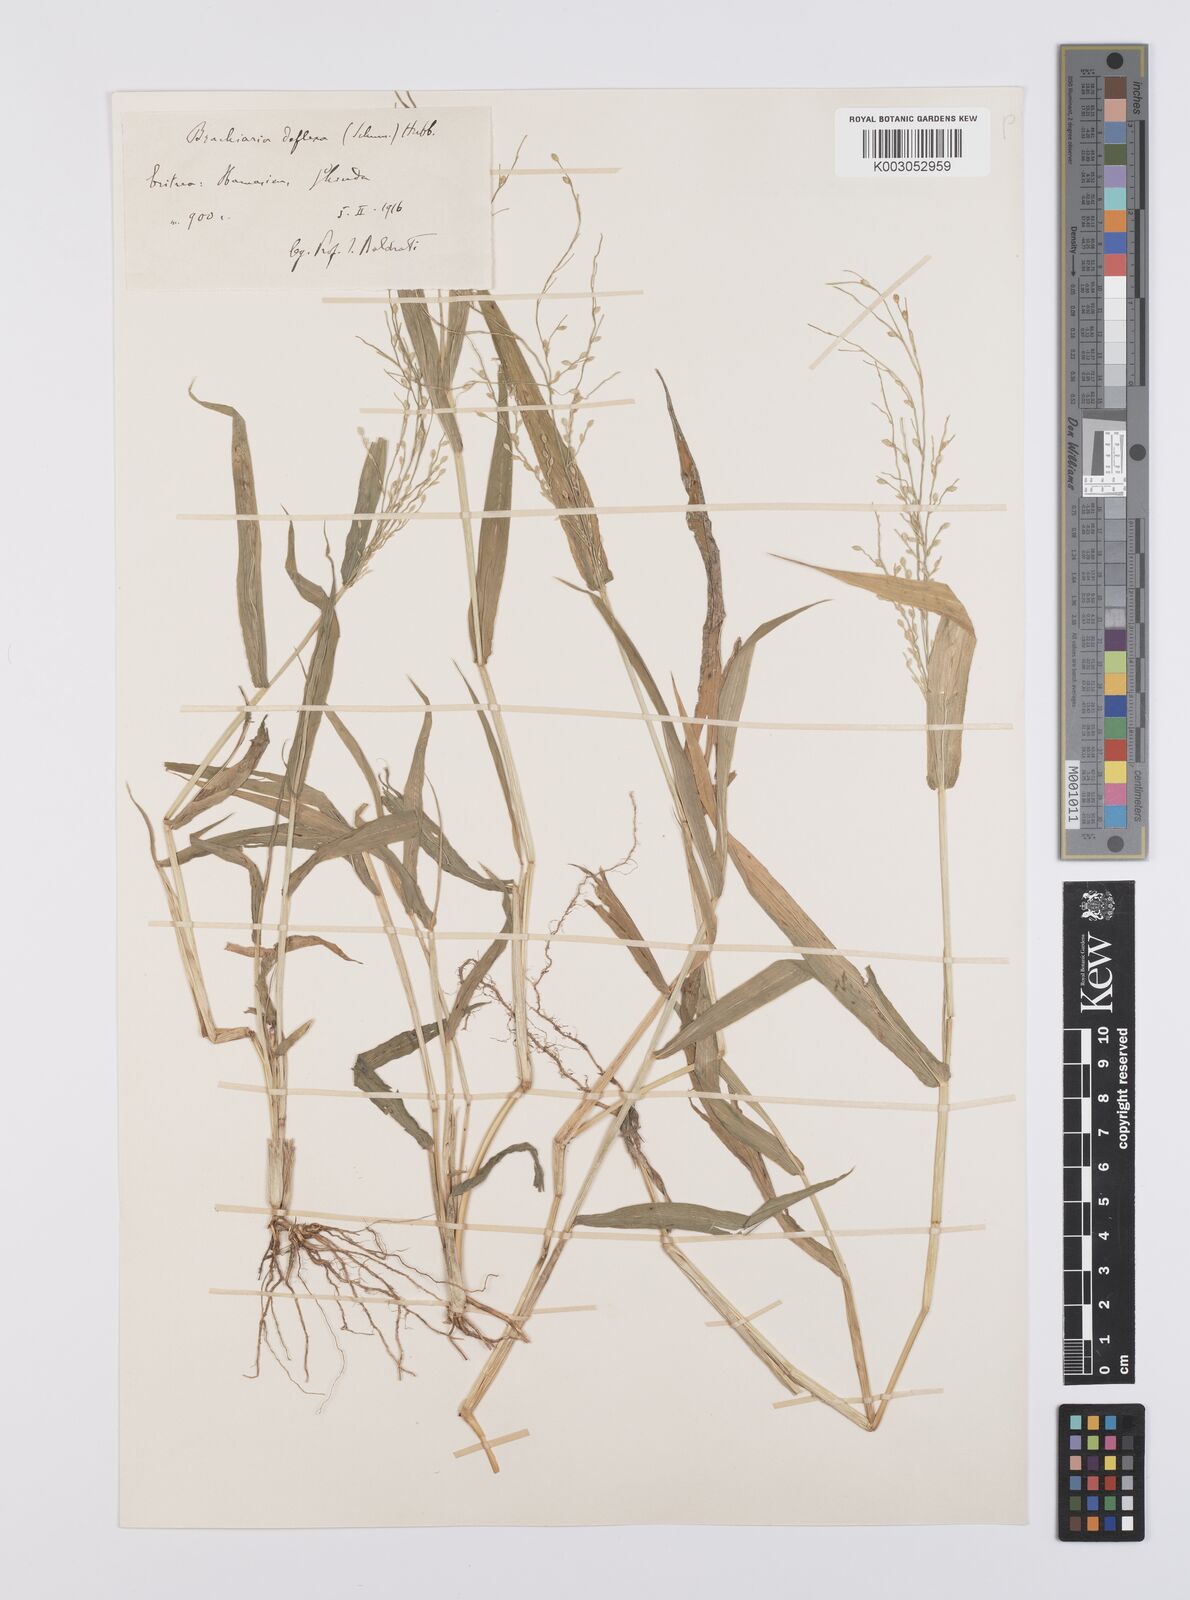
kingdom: Plantae
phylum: Tracheophyta
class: Liliopsida
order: Poales
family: Poaceae
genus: Urochloa
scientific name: Urochloa deflexa
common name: Guinea millet
